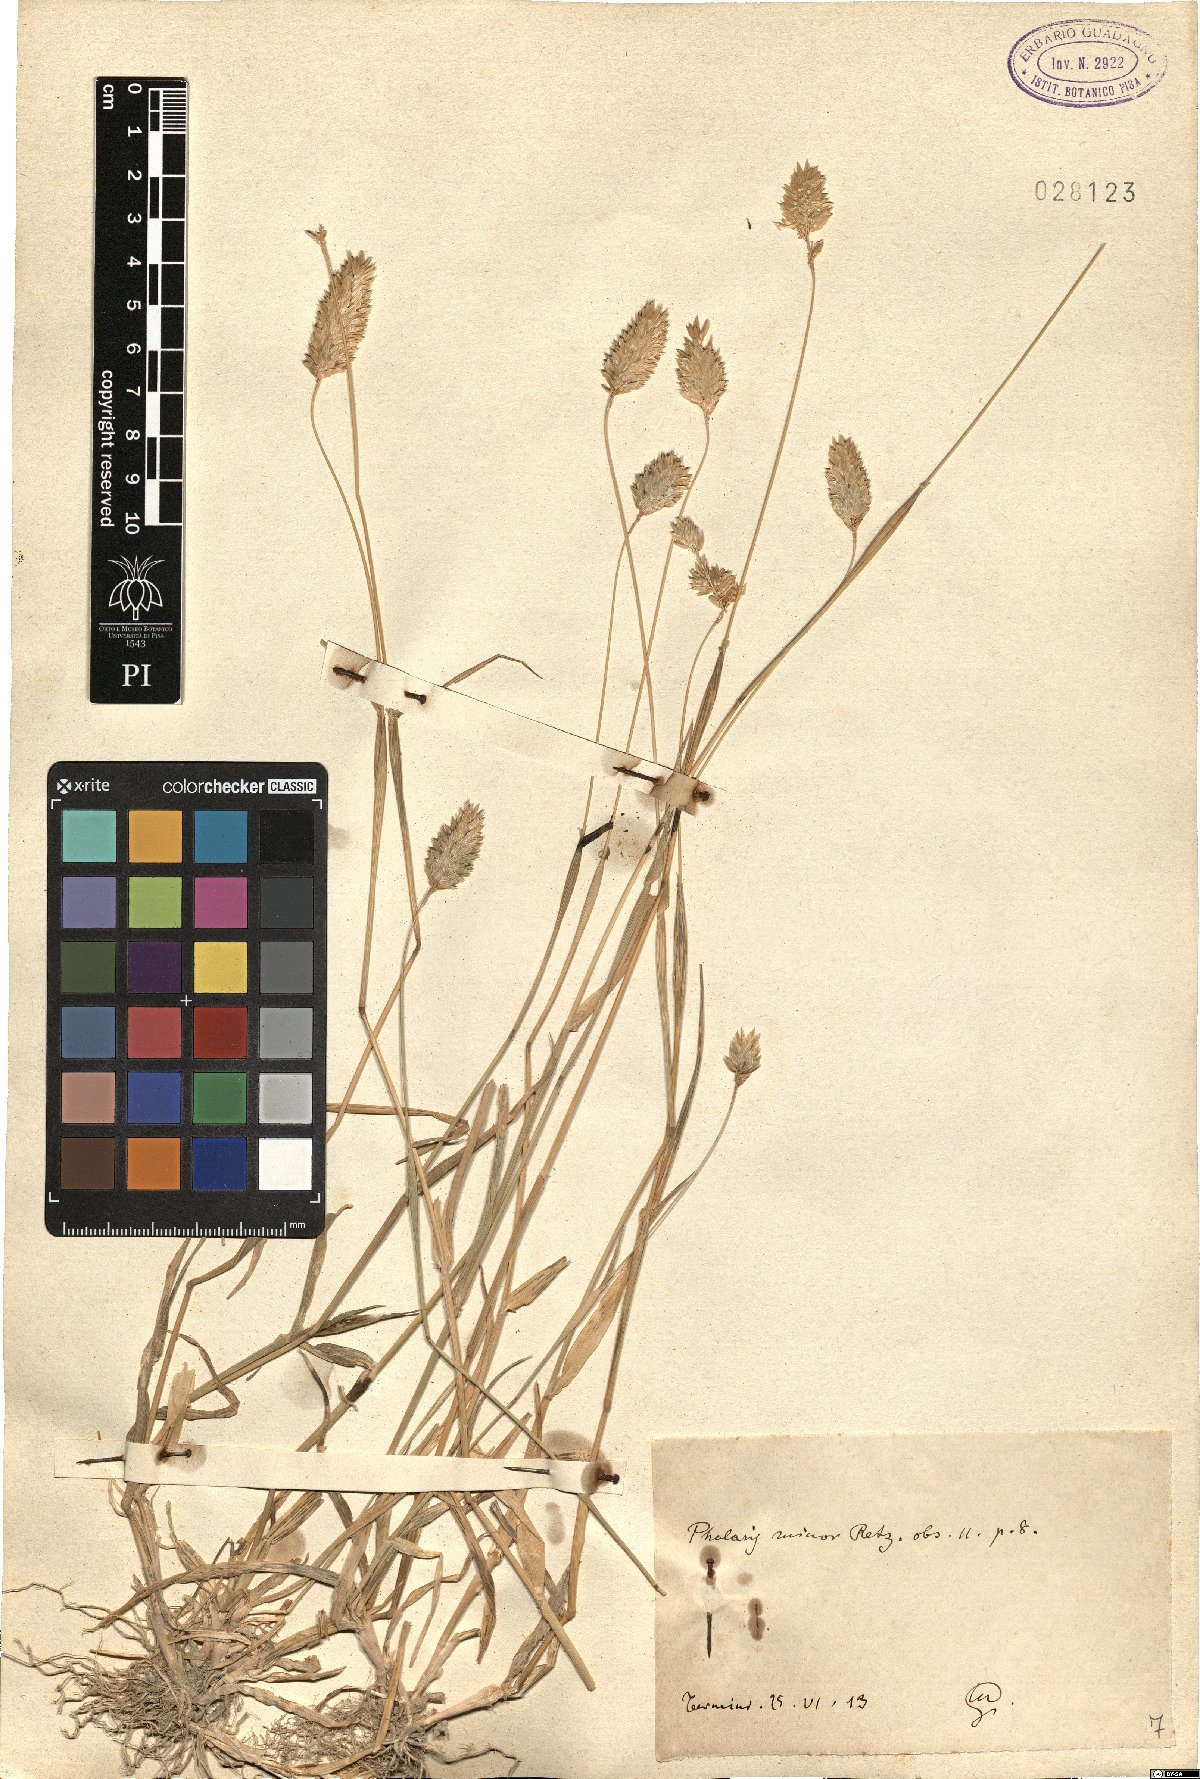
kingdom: Plantae
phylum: Tracheophyta
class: Liliopsida
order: Poales
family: Poaceae
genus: Phalaris
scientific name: Phalaris minor
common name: Littleseed canarygrass
